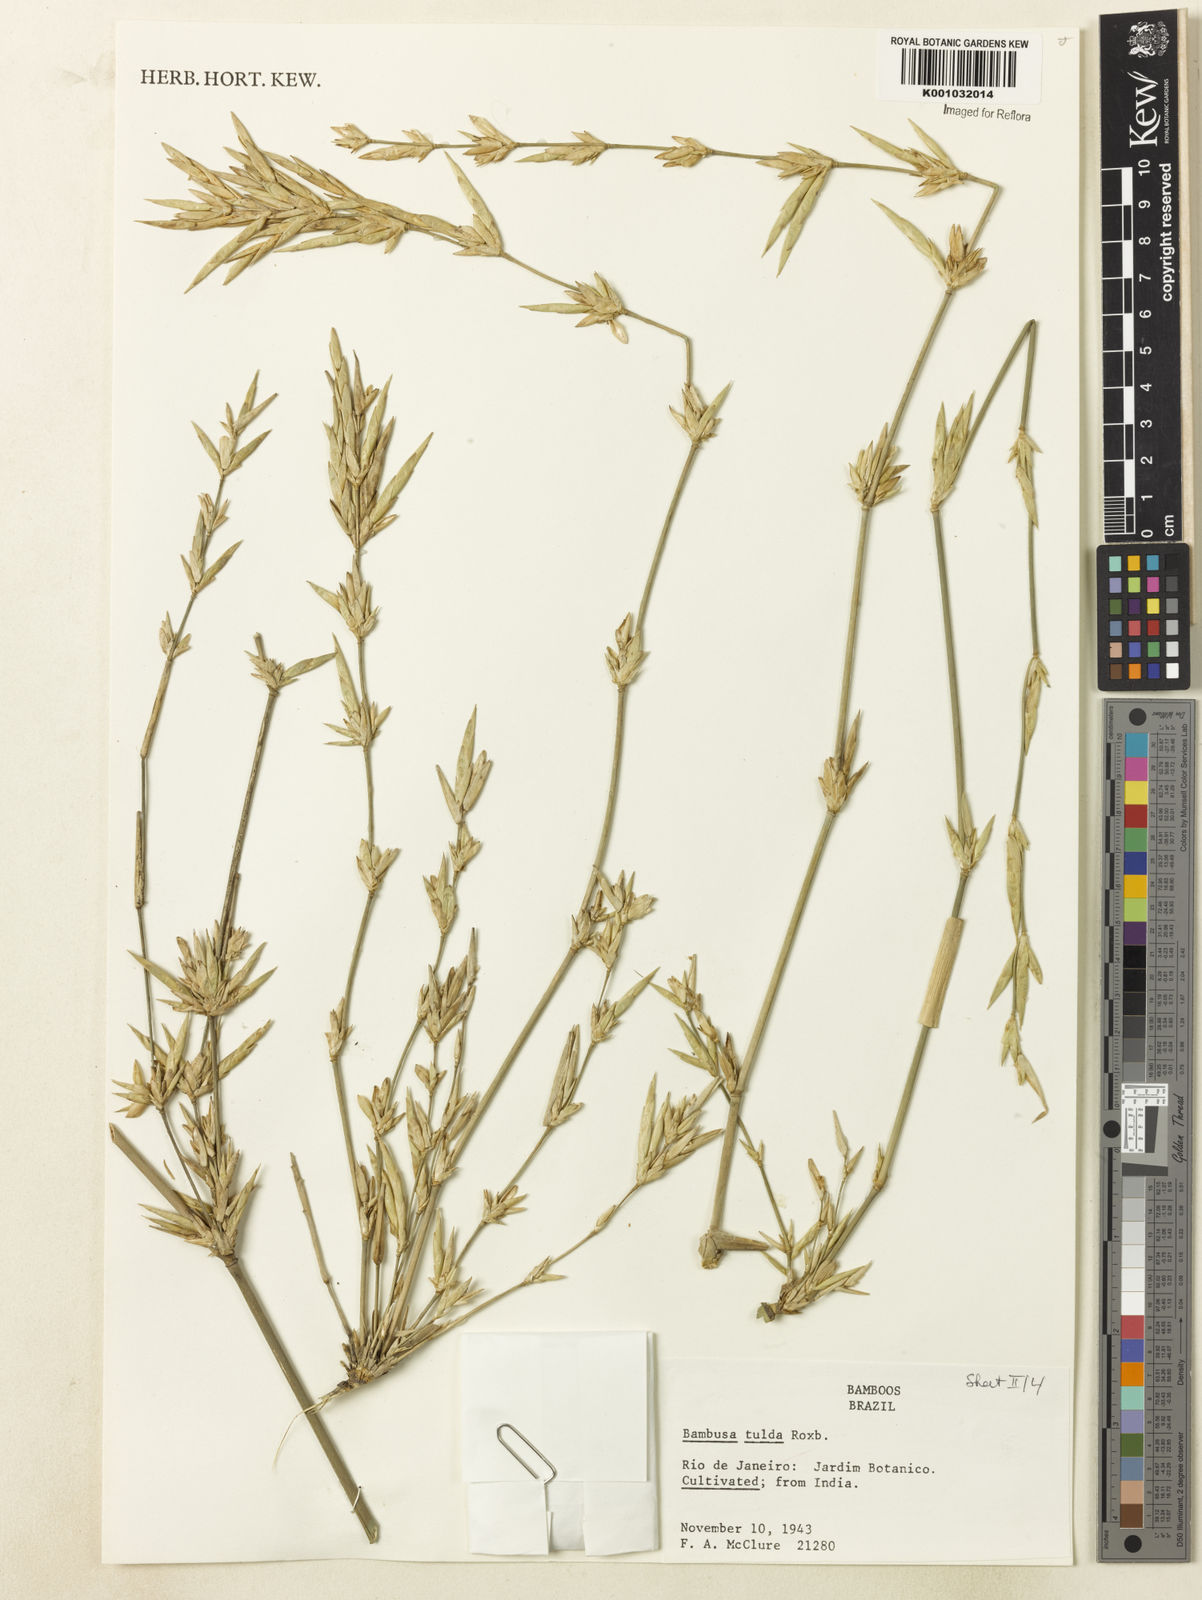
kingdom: Plantae
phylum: Tracheophyta
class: Liliopsida
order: Poales
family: Poaceae
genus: Bambusa
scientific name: Bambusa tulda
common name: Bengal bamboo
